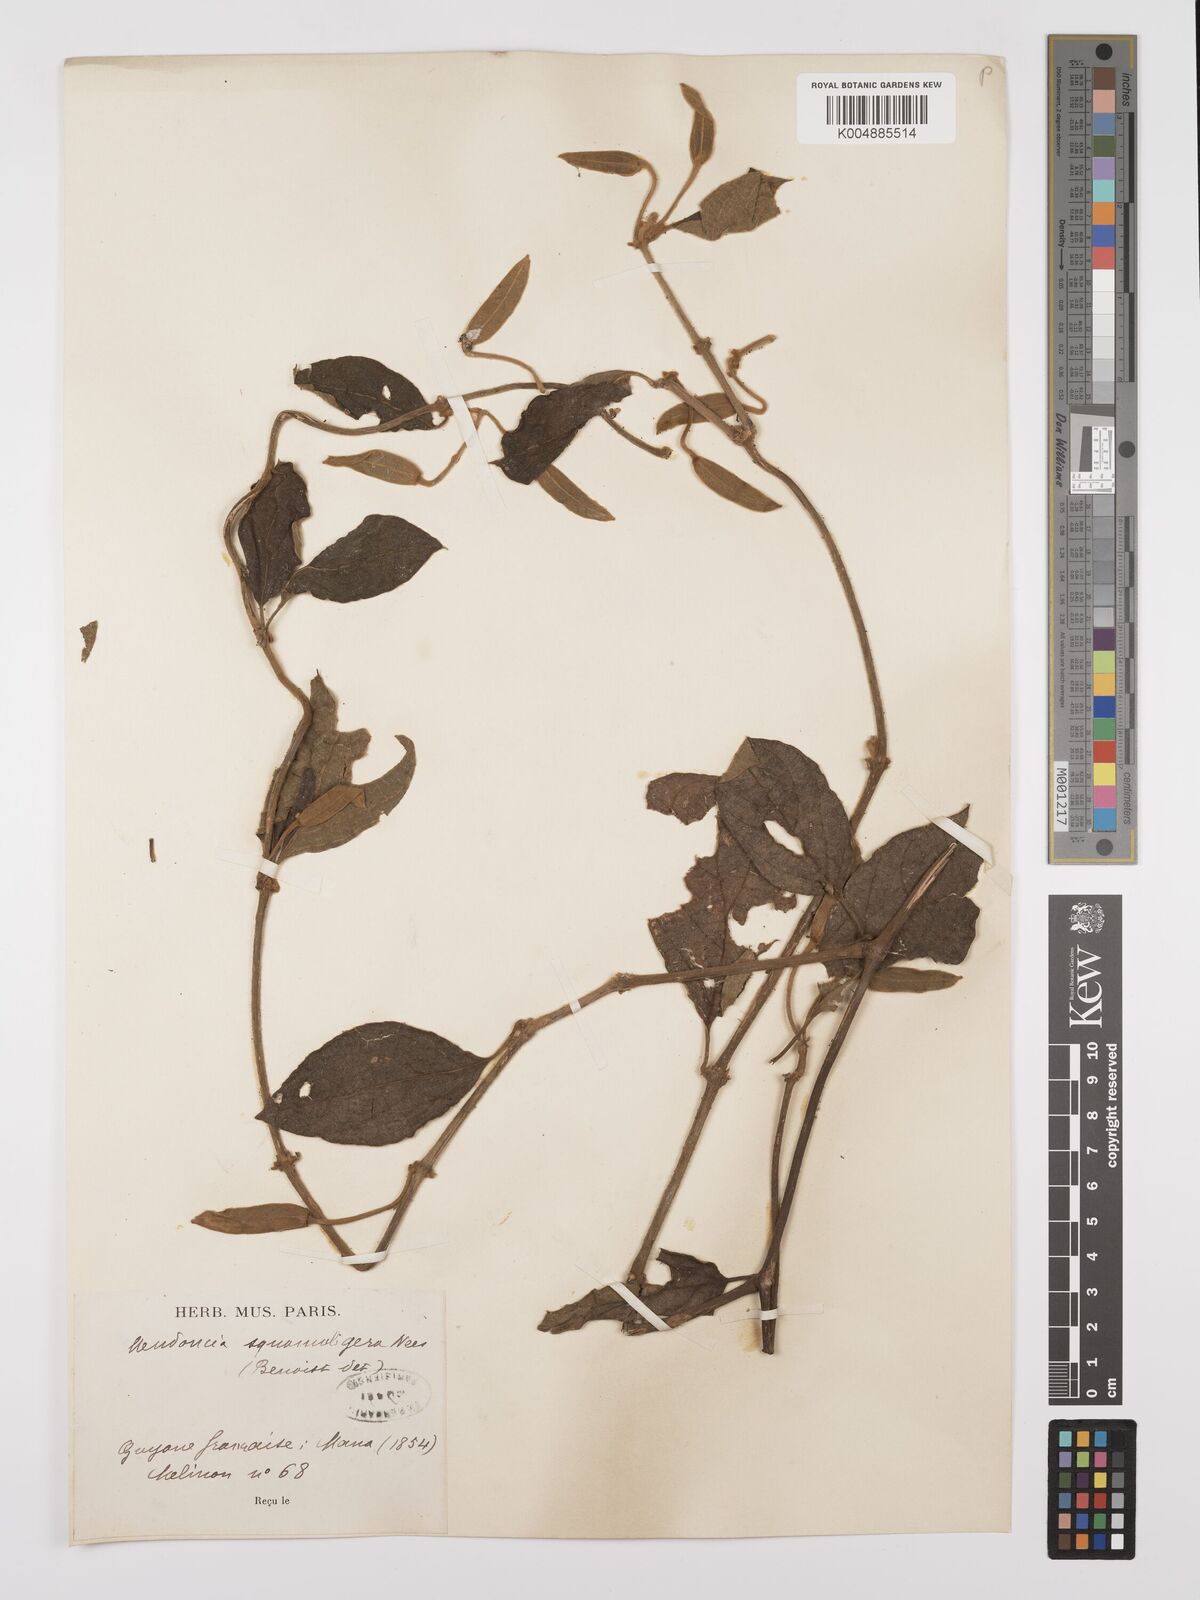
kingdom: Plantae
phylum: Tracheophyta
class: Magnoliopsida
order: Lamiales
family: Acanthaceae
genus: Mendoncia
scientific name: Mendoncia squamuligera
